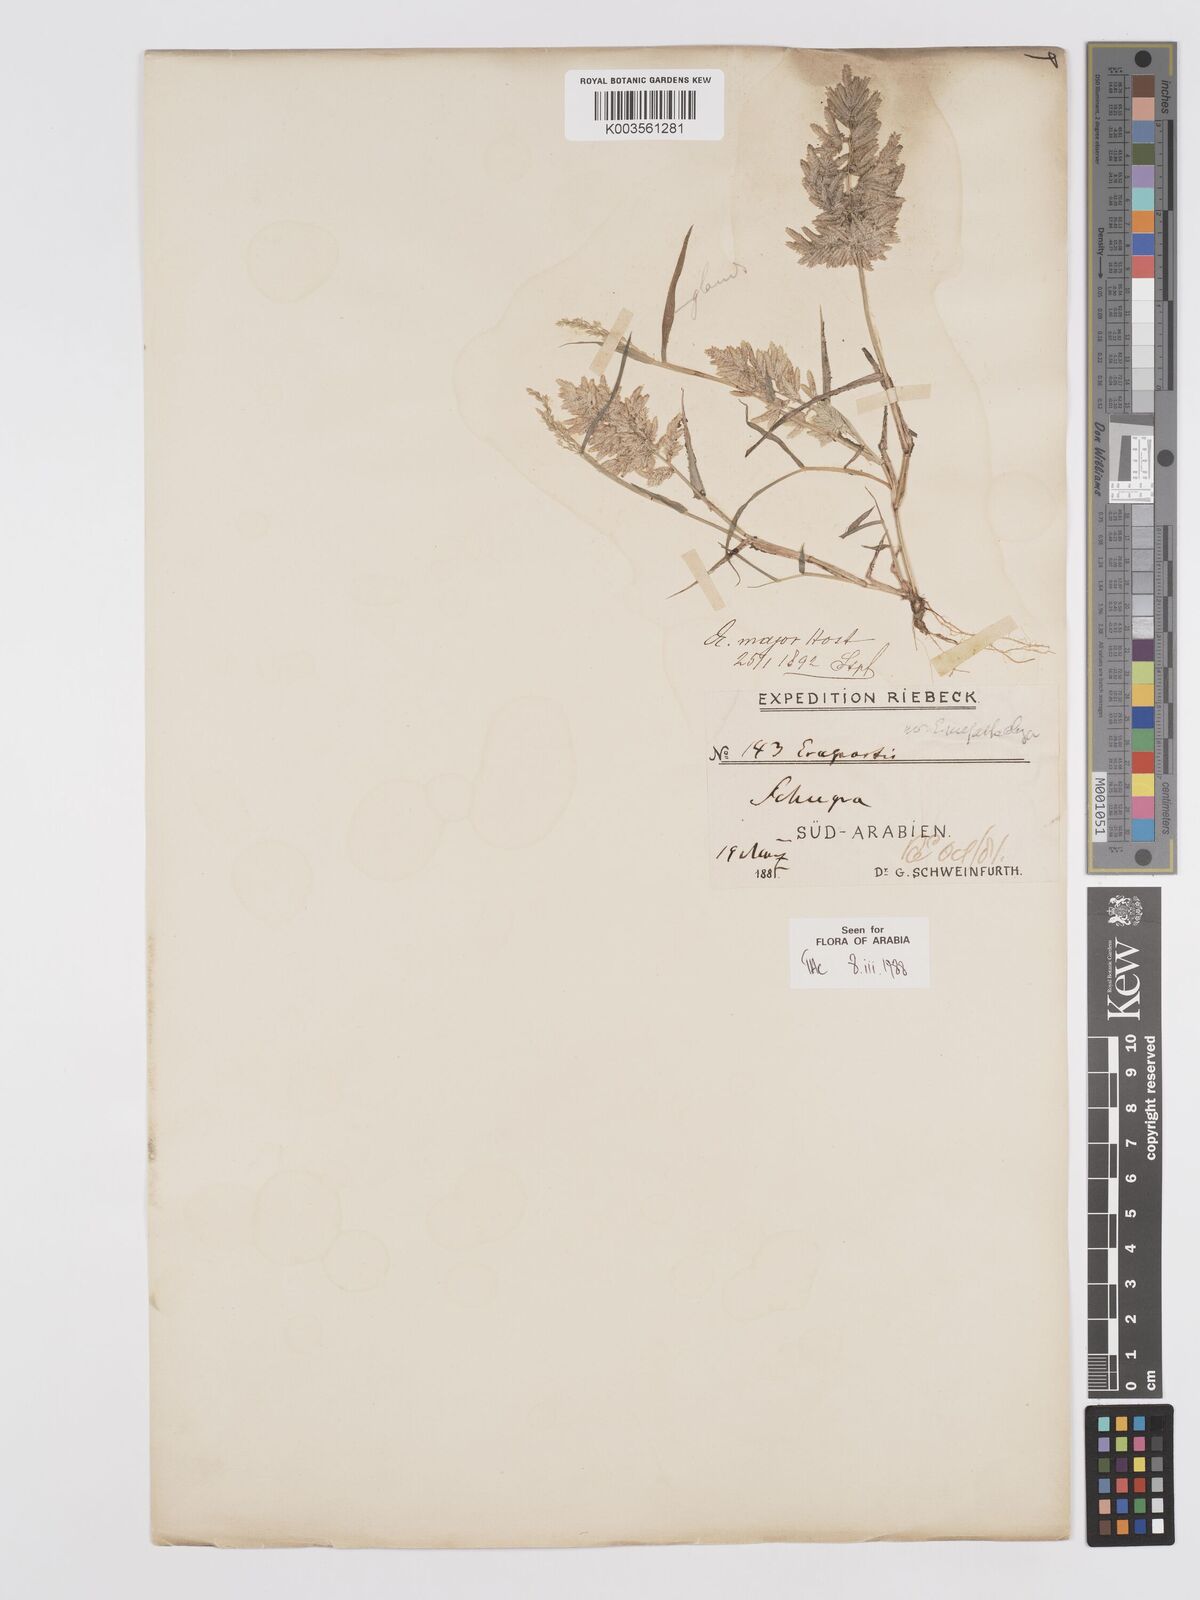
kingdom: Plantae
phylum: Tracheophyta
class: Liliopsida
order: Poales
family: Poaceae
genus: Eragrostis
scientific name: Eragrostis cilianensis
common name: Stinkgrass
